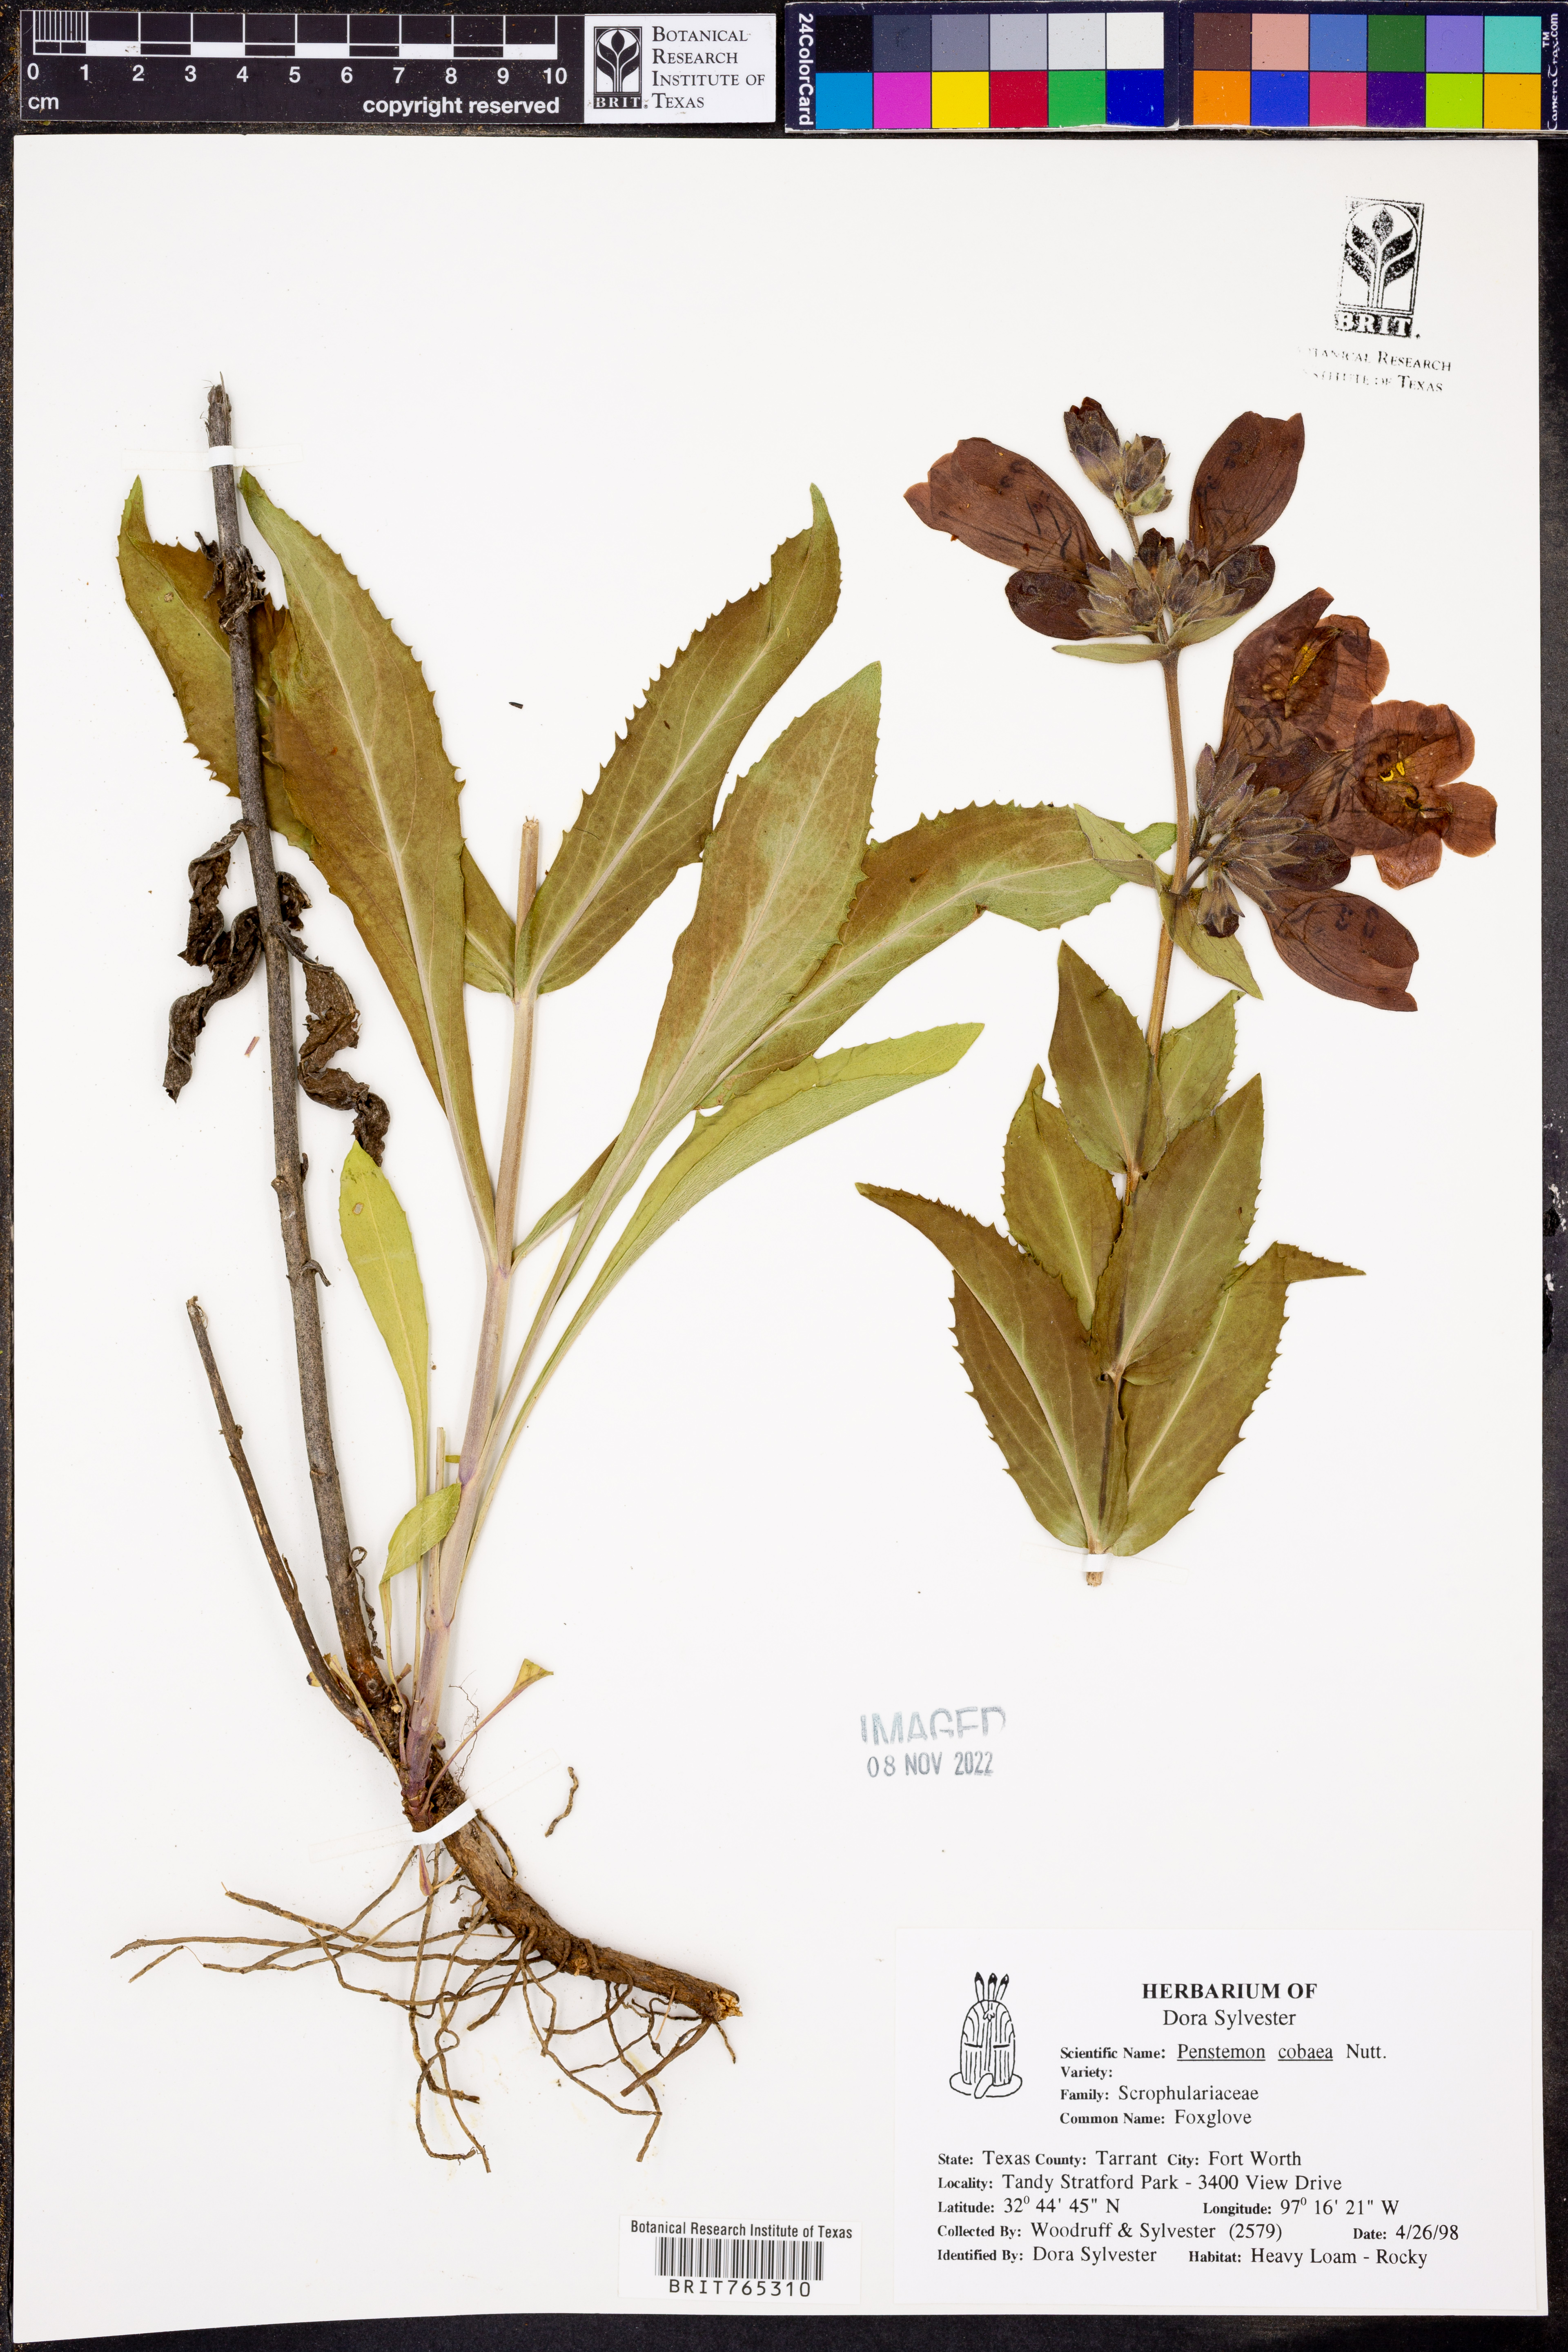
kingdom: Plantae
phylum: Tracheophyta
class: Magnoliopsida
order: Lamiales
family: Plantaginaceae
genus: Penstemon
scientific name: Penstemon cobaea
